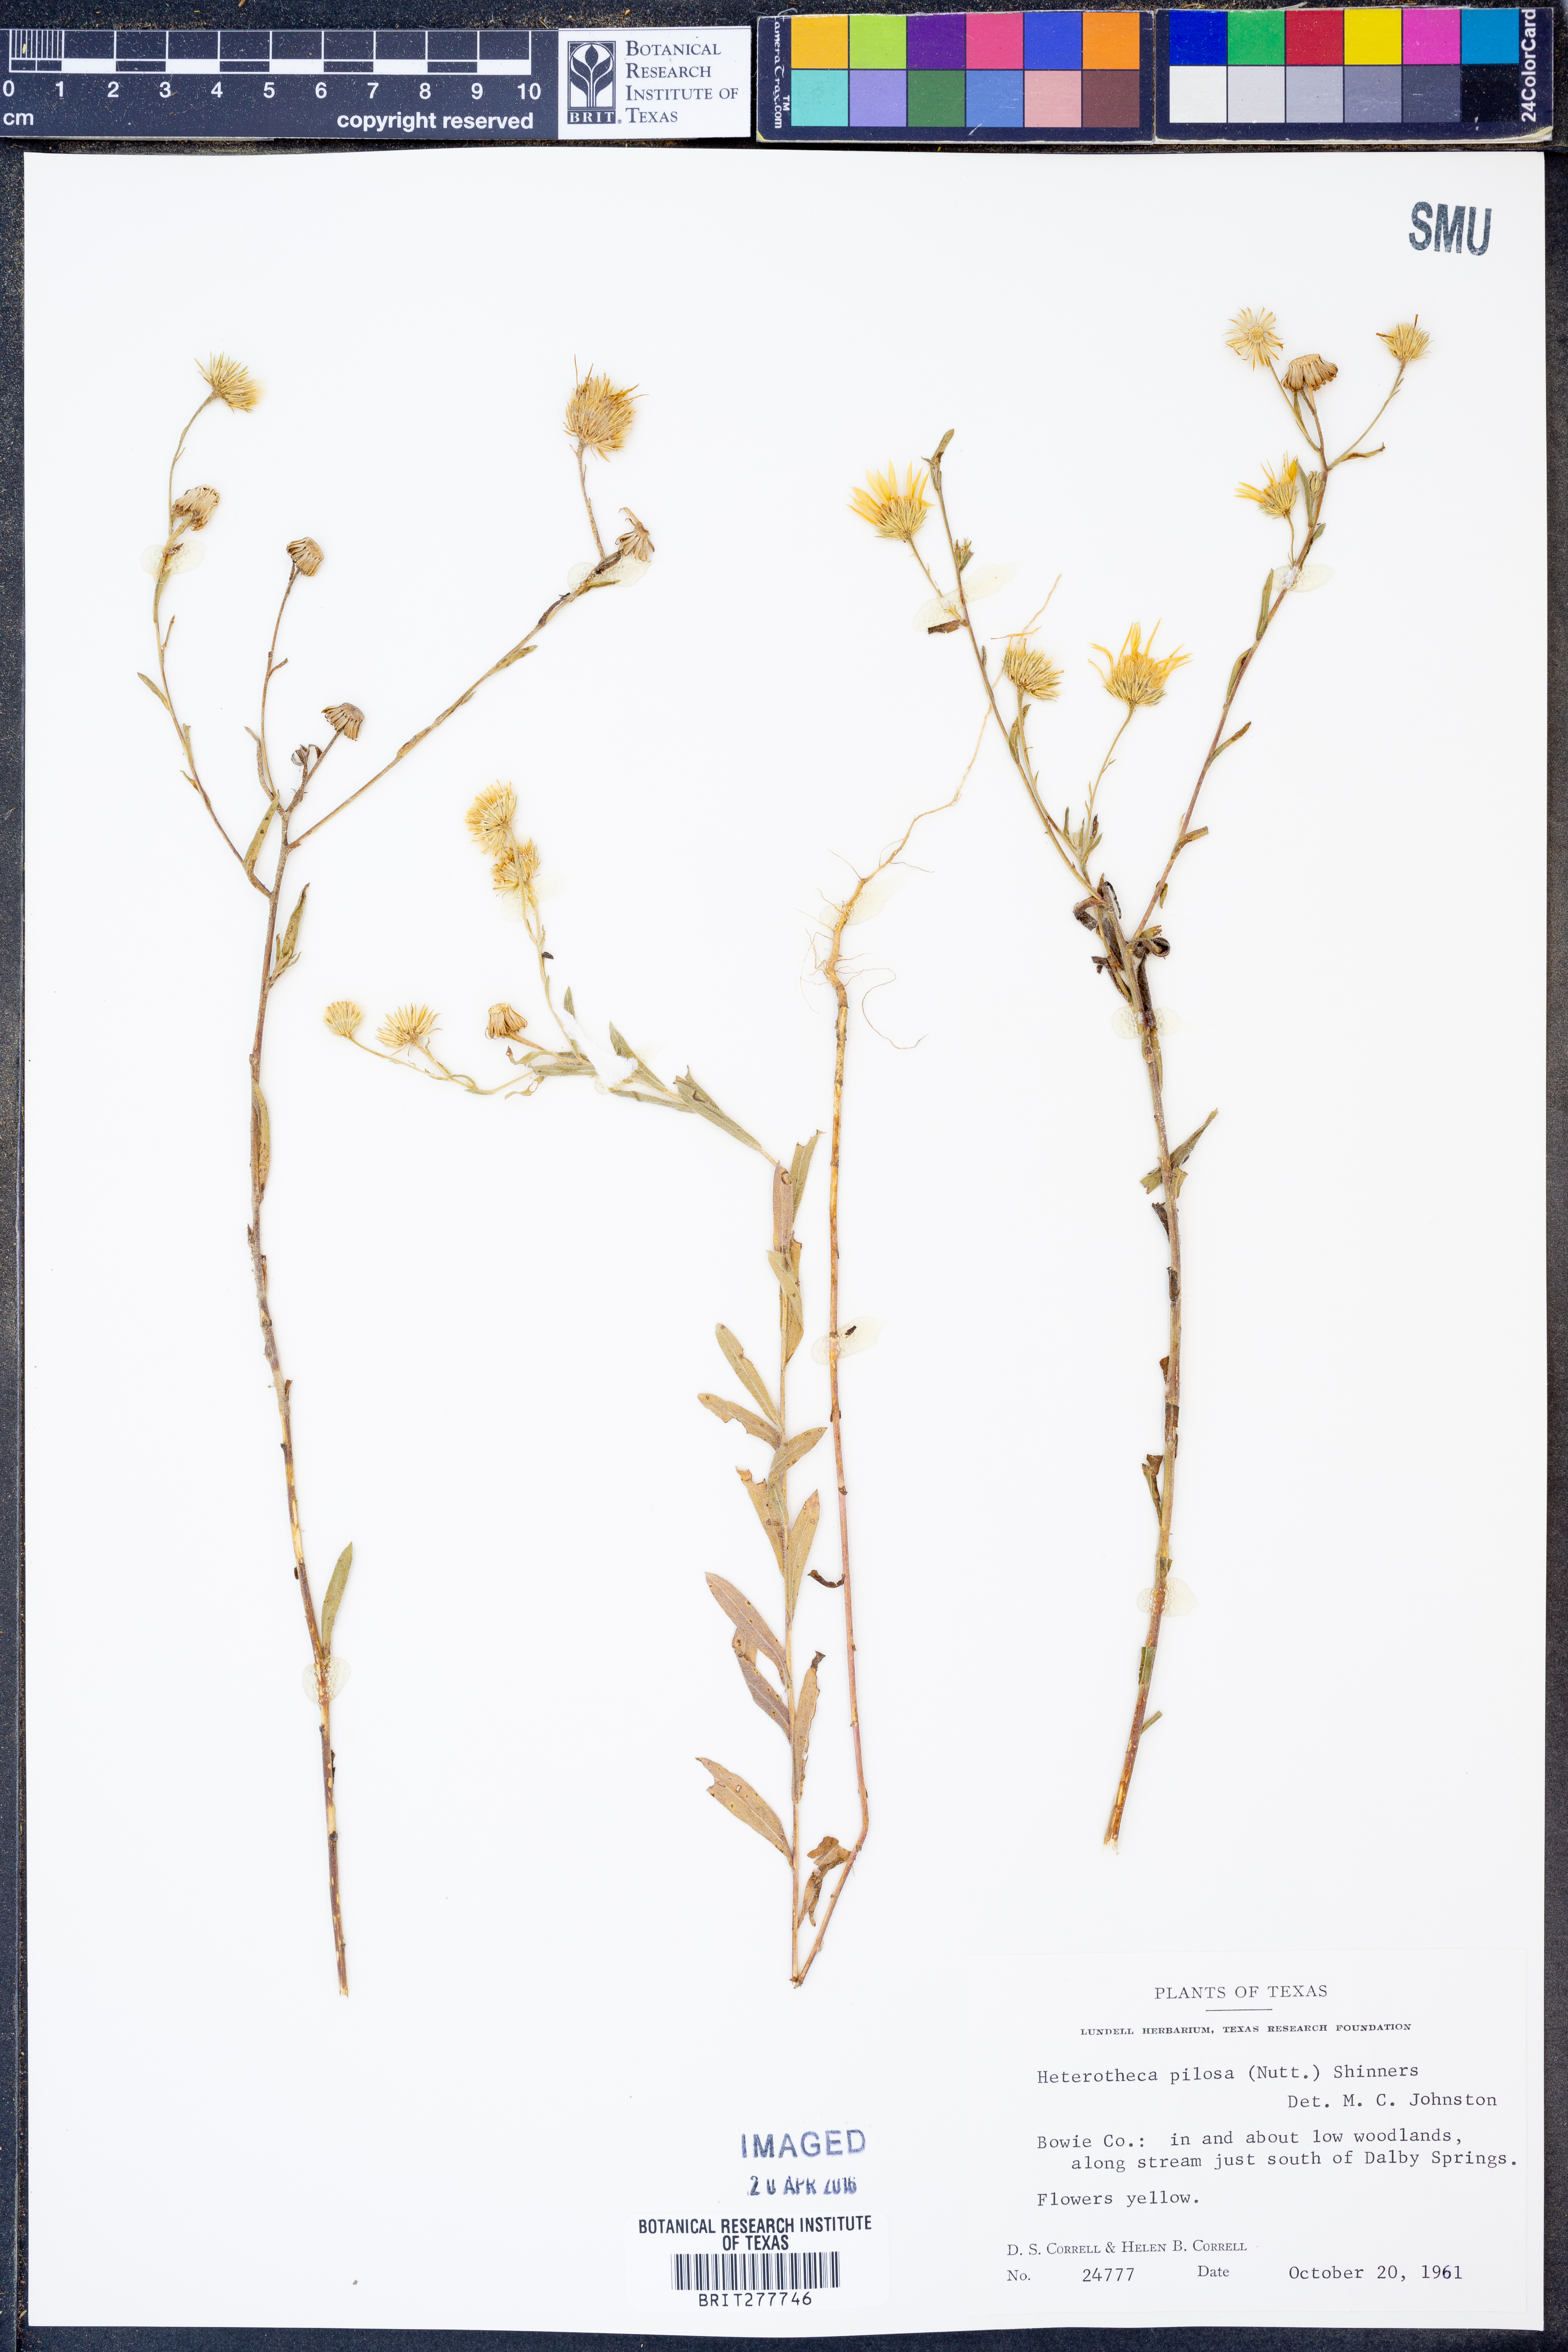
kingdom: Plantae
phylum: Tracheophyta
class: Magnoliopsida
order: Asterales
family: Asteraceae
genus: Bradburia
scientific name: Bradburia pilosa
